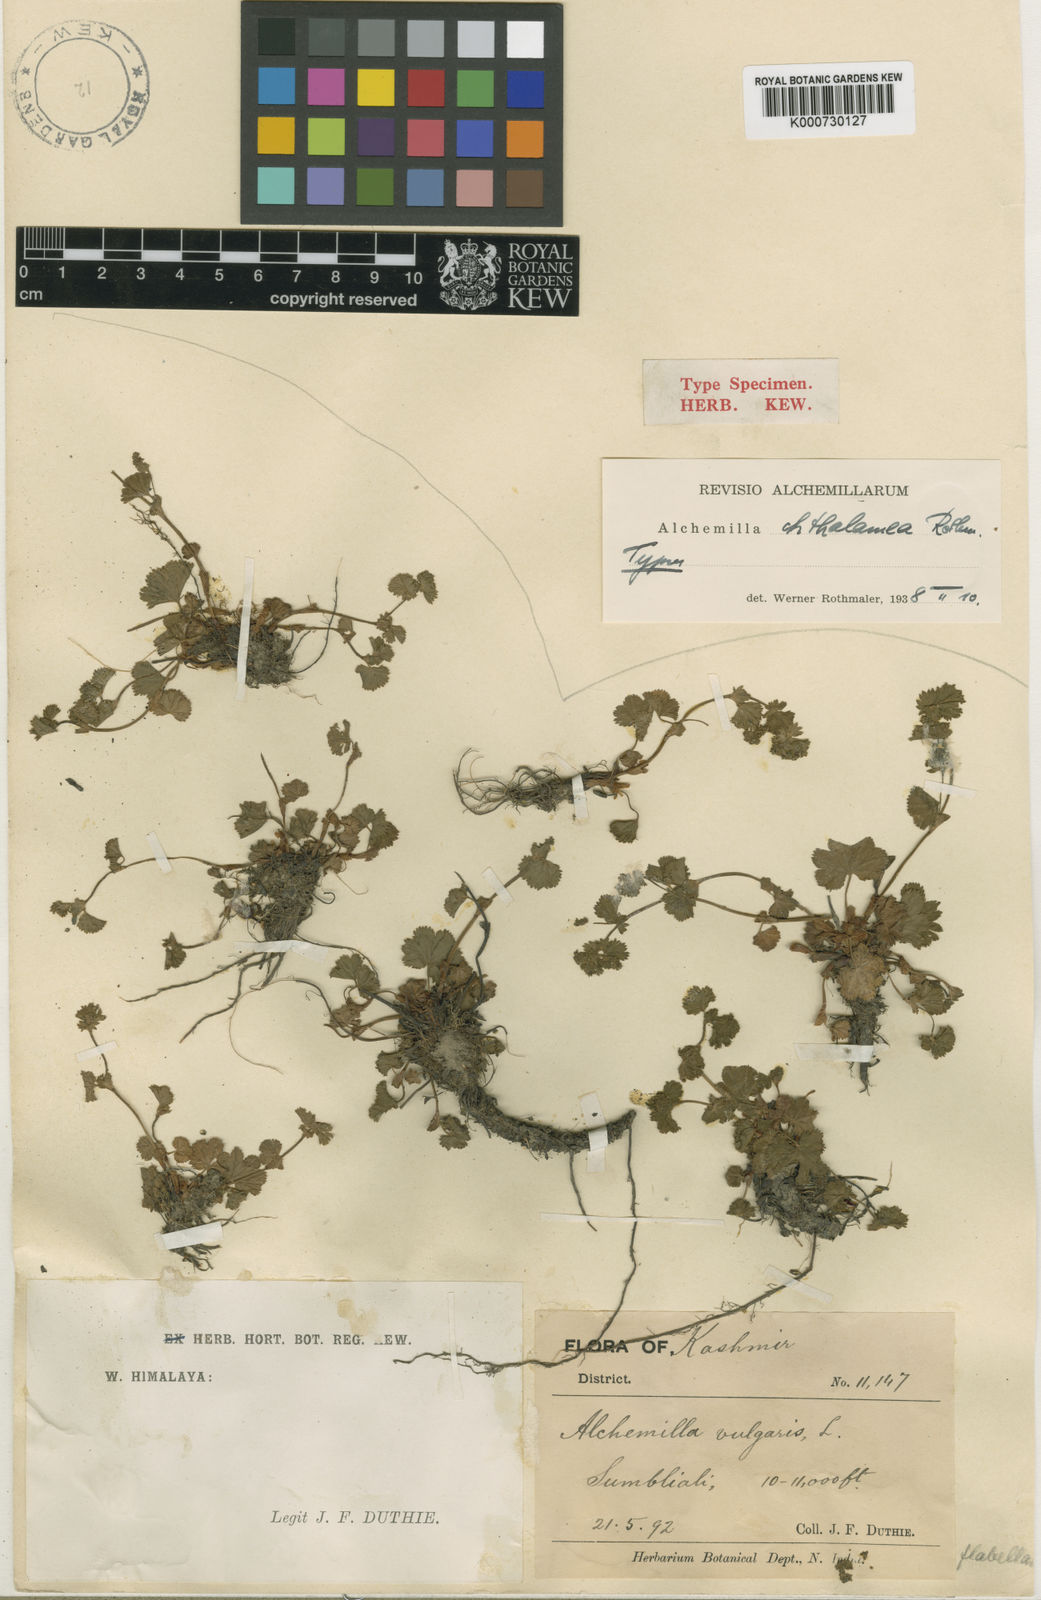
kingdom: Plantae
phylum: Tracheophyta
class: Magnoliopsida
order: Rosales
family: Rosaceae
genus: Alchemilla
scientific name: Alchemilla chthamalea
